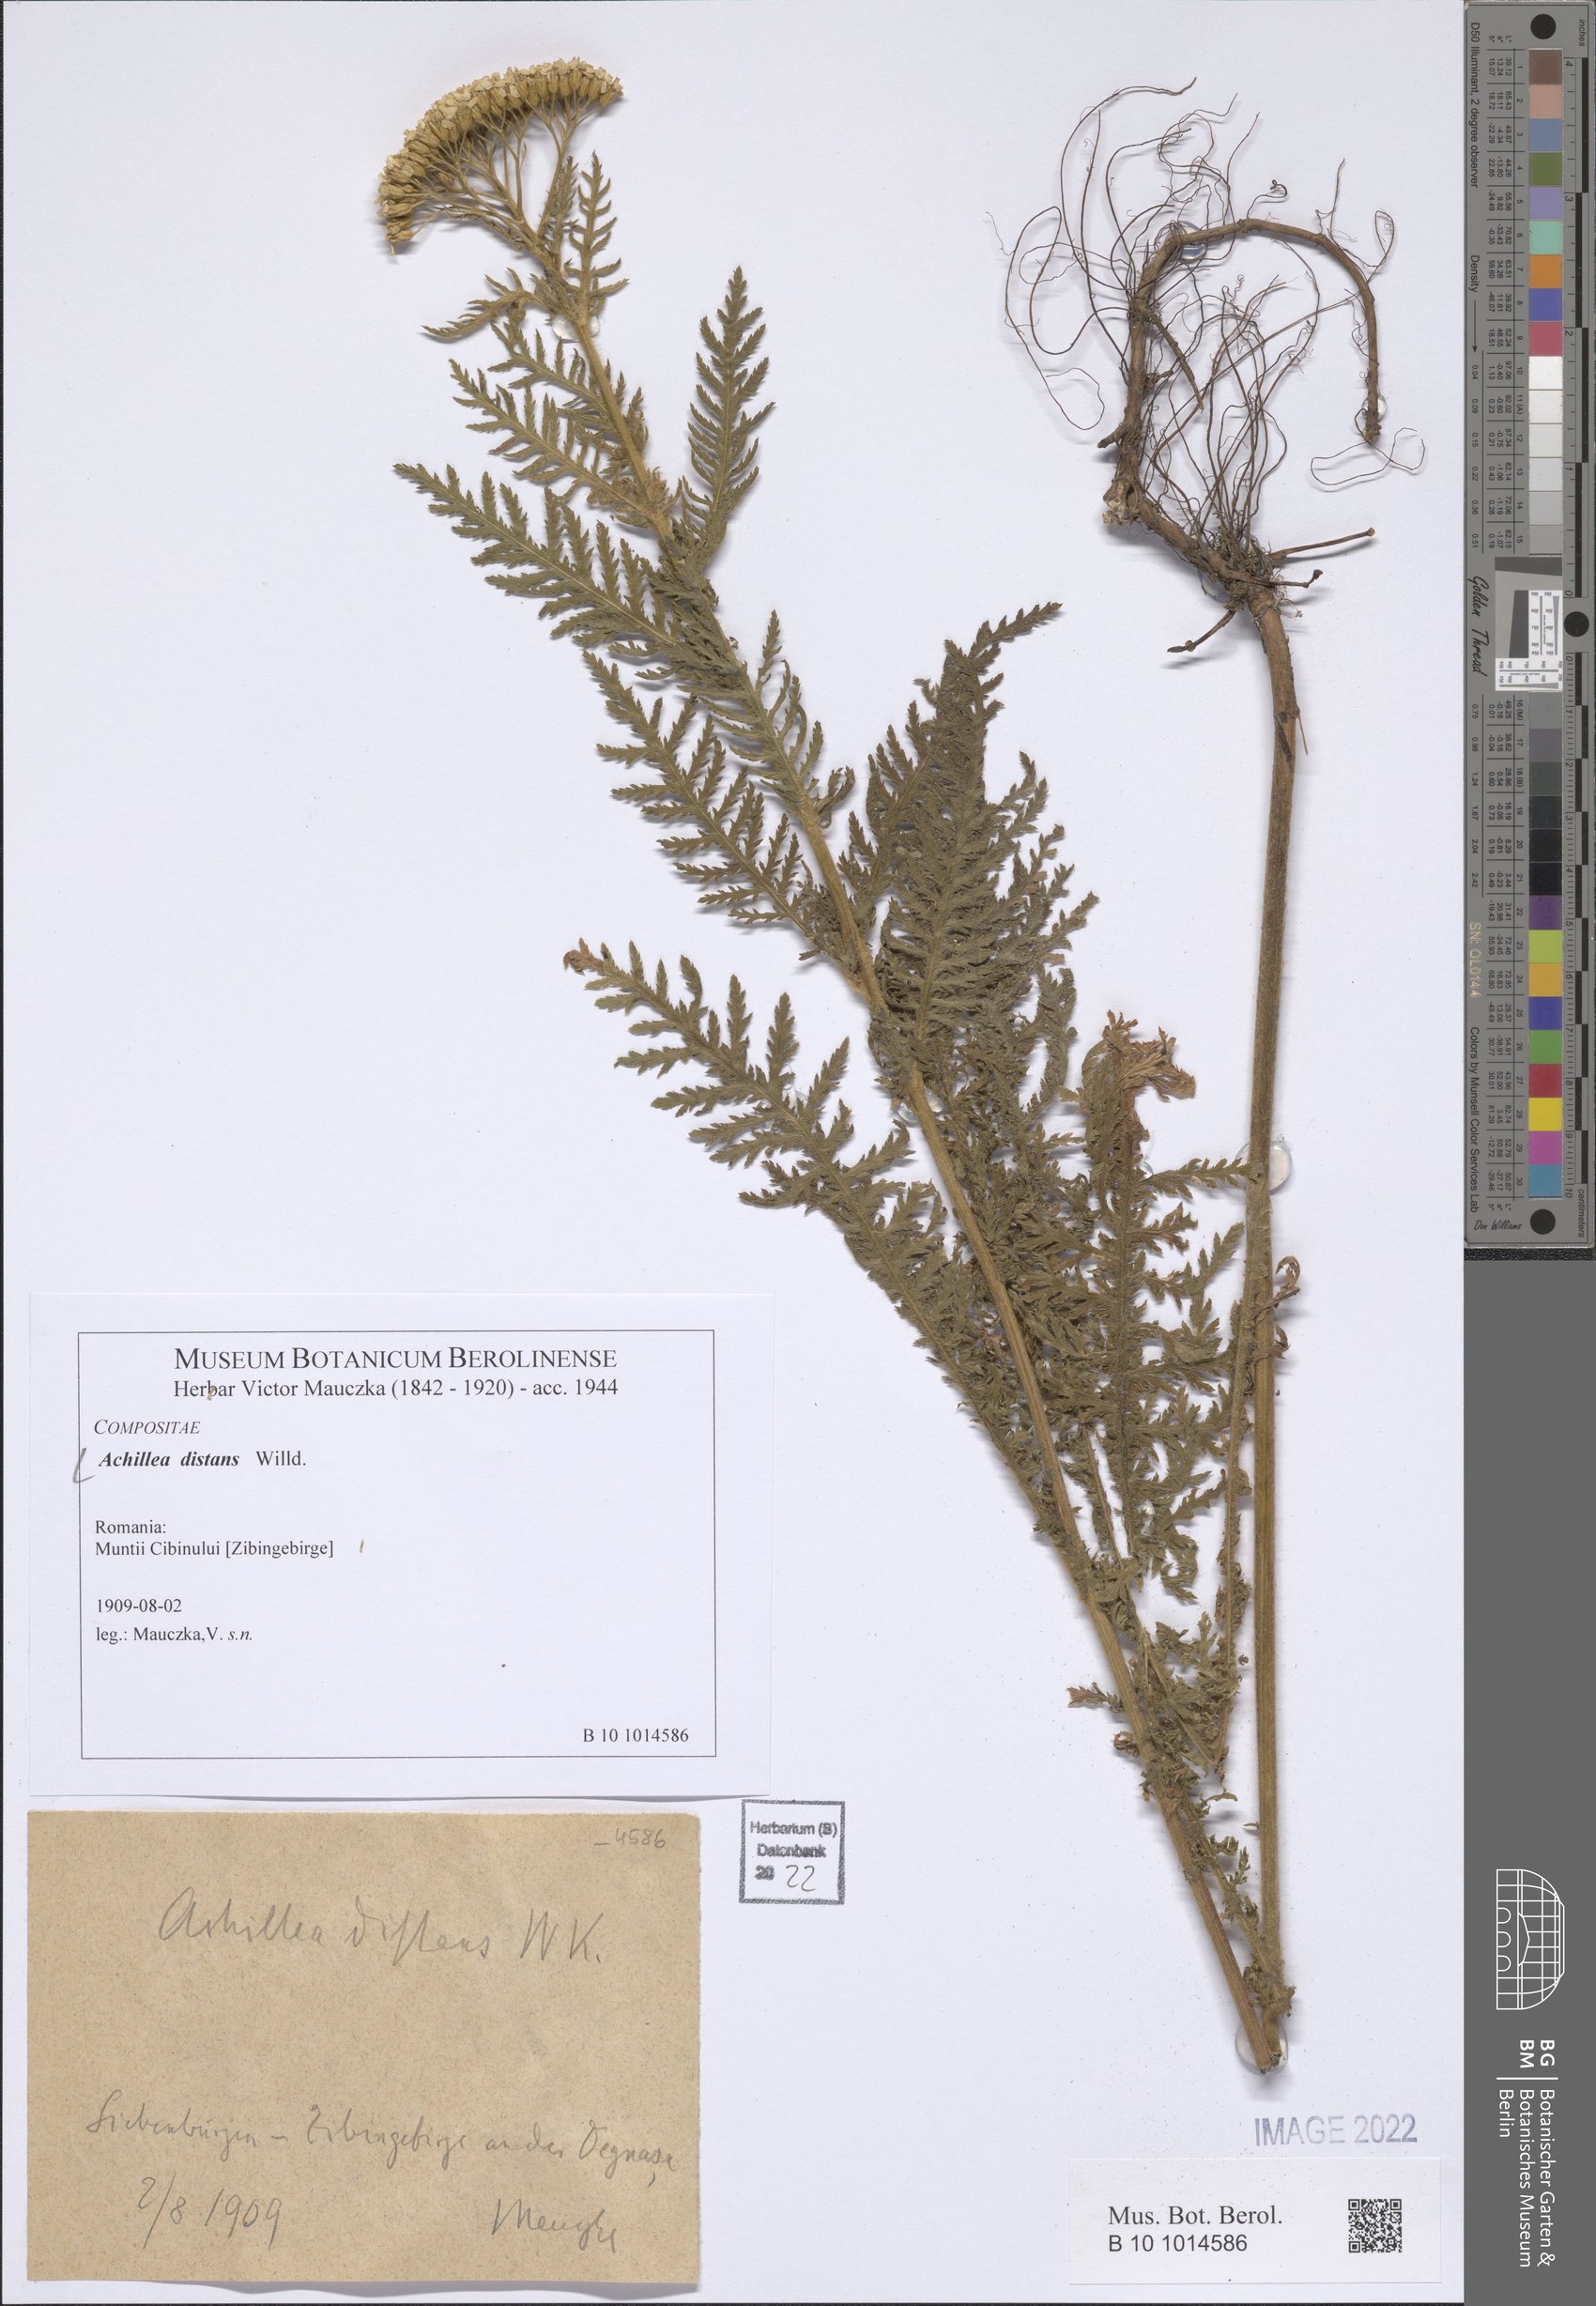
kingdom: Plantae
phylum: Tracheophyta
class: Magnoliopsida
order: Asterales
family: Asteraceae
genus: Achillea
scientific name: Achillea distans
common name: Tall yarrow
